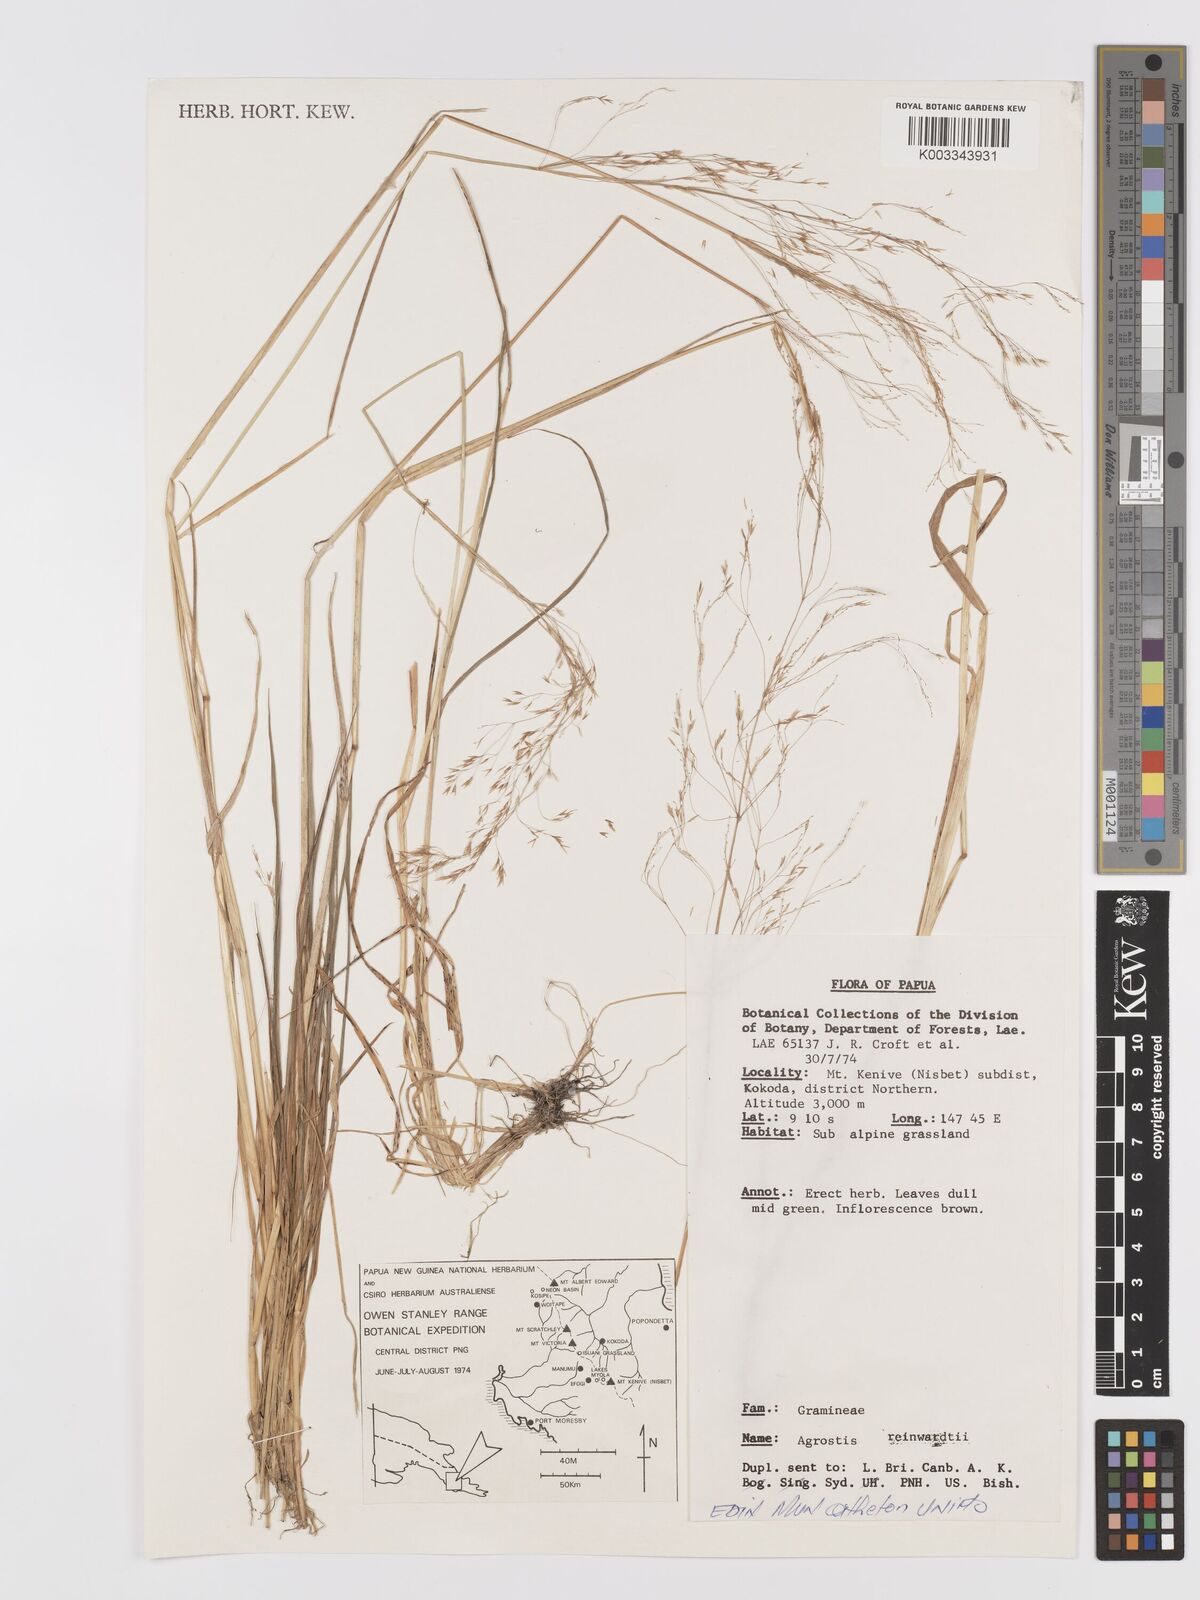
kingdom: Plantae
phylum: Tracheophyta
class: Liliopsida
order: Poales
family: Poaceae
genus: Agrostis
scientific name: Agrostis infirma
